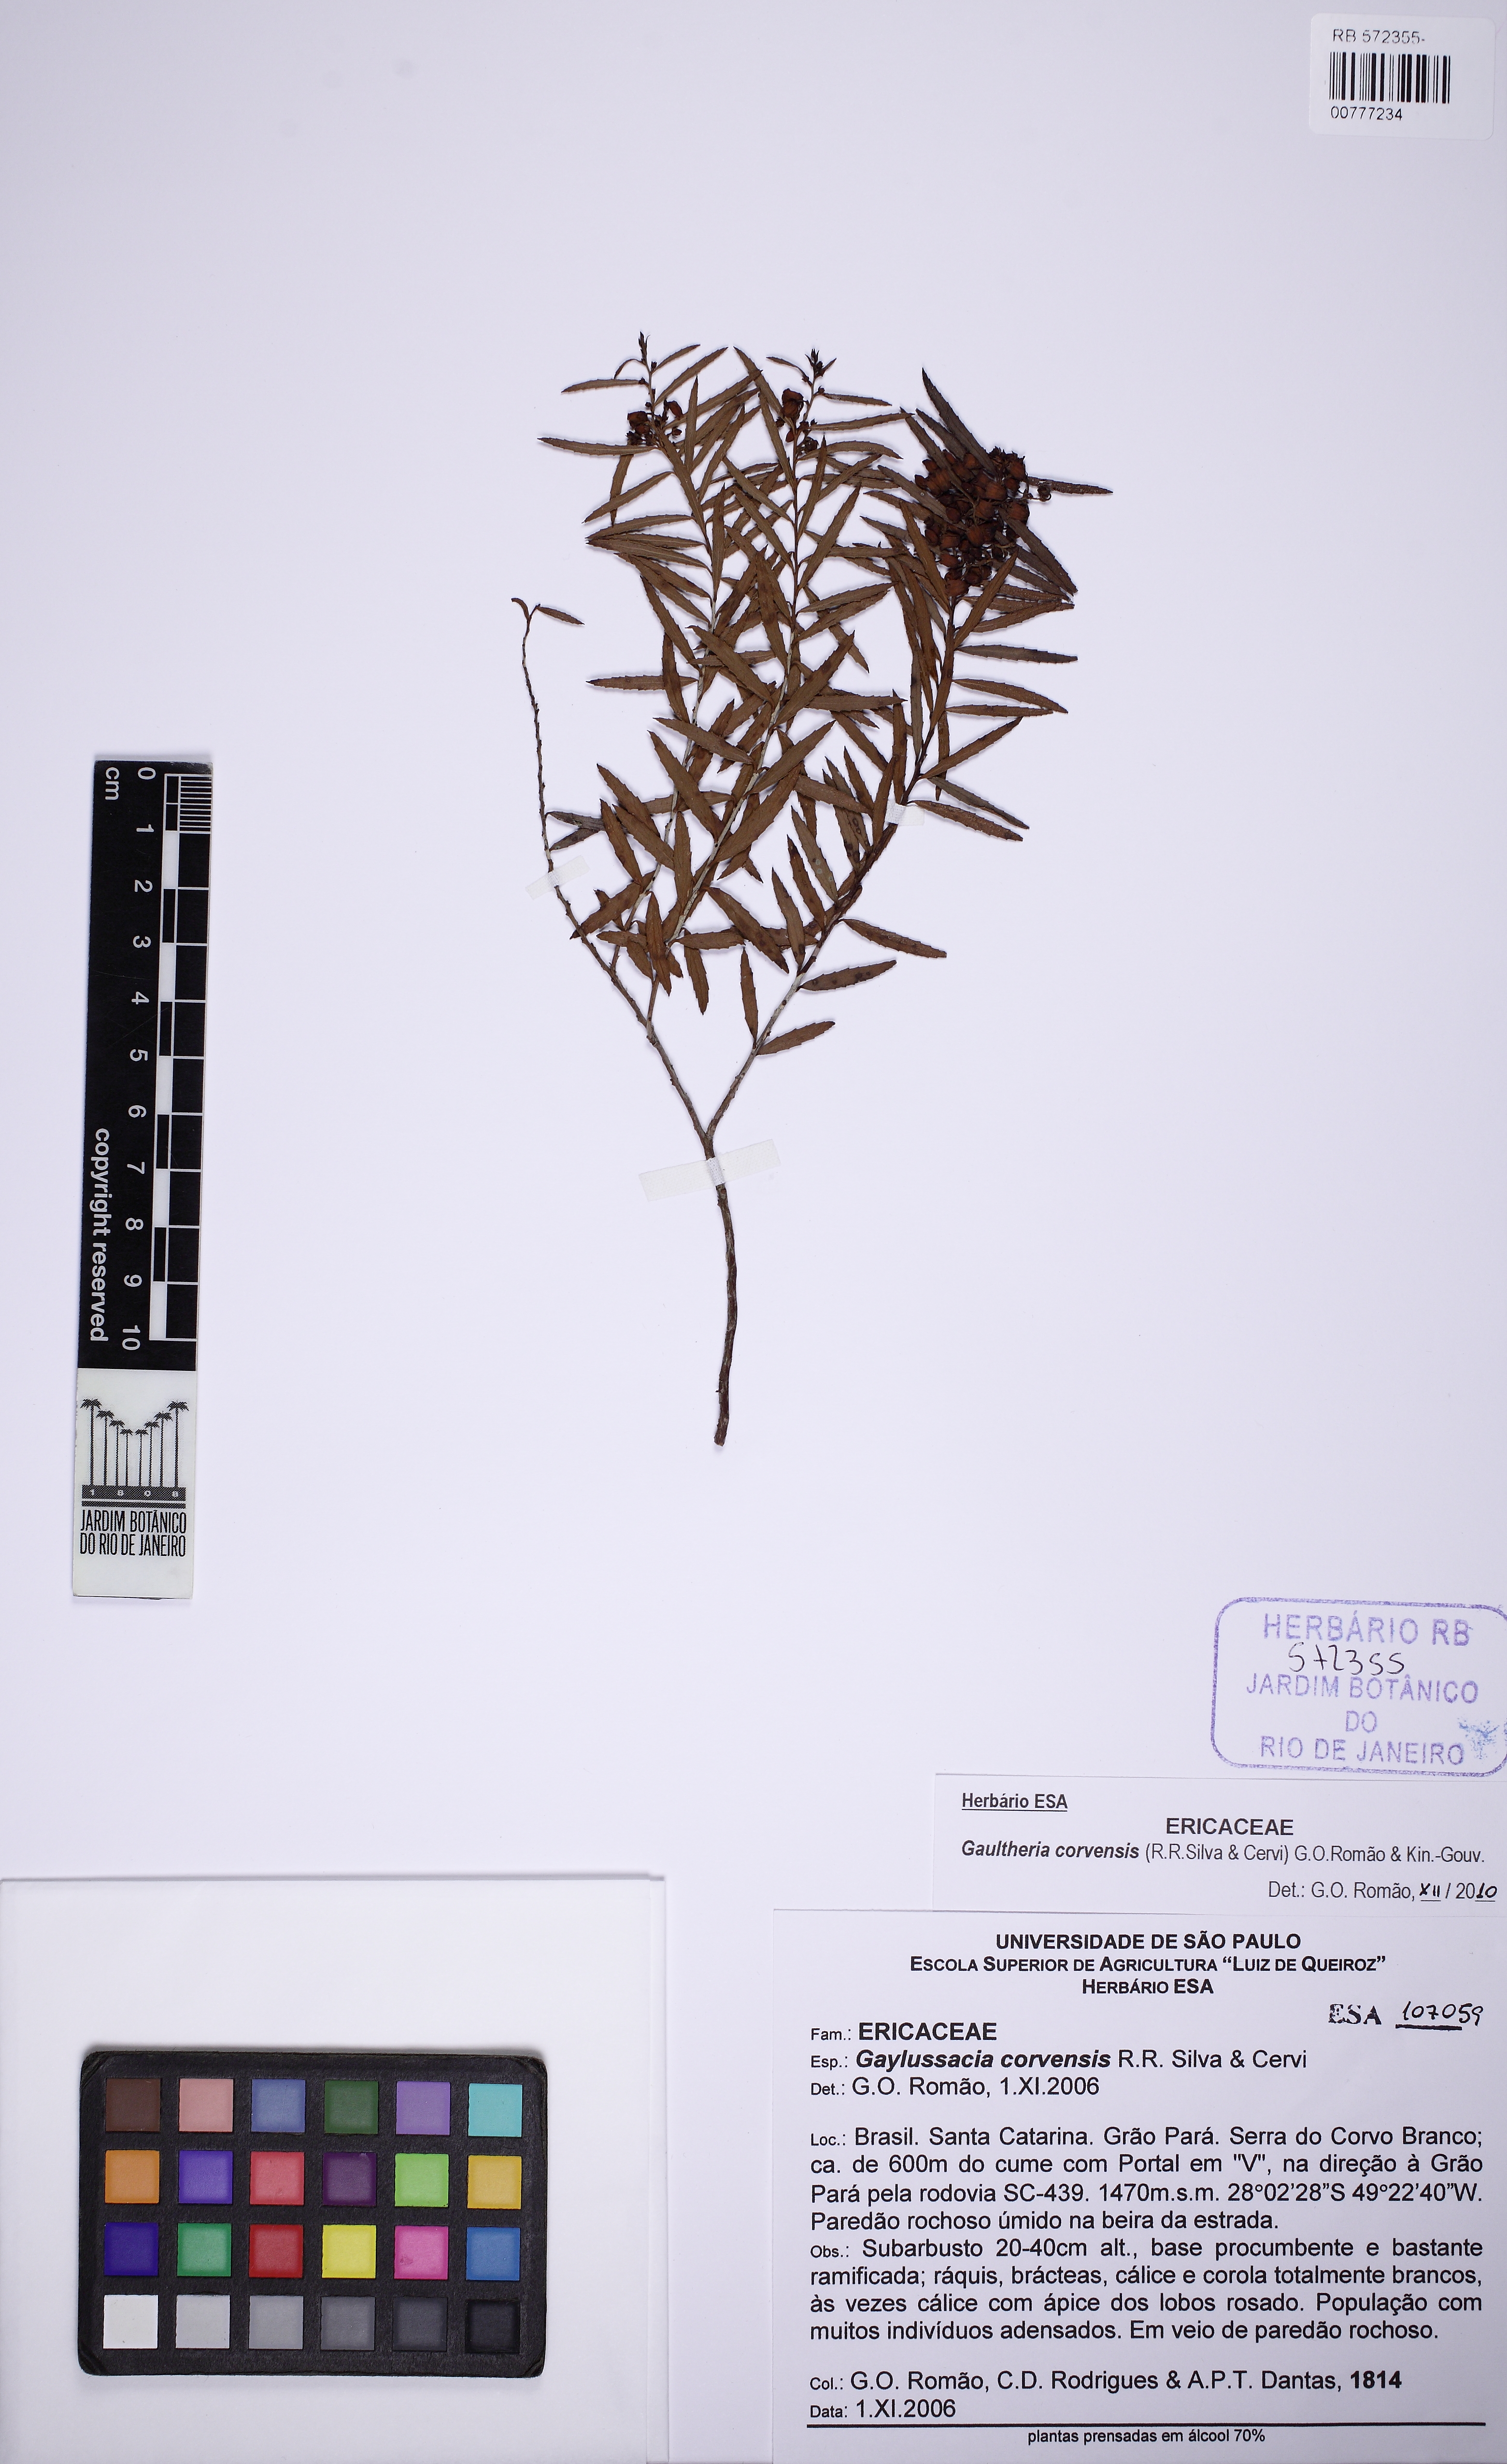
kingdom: Plantae
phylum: Tracheophyta
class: Magnoliopsida
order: Ericales
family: Ericaceae
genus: Gaultheria
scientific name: Gaultheria corvensis
